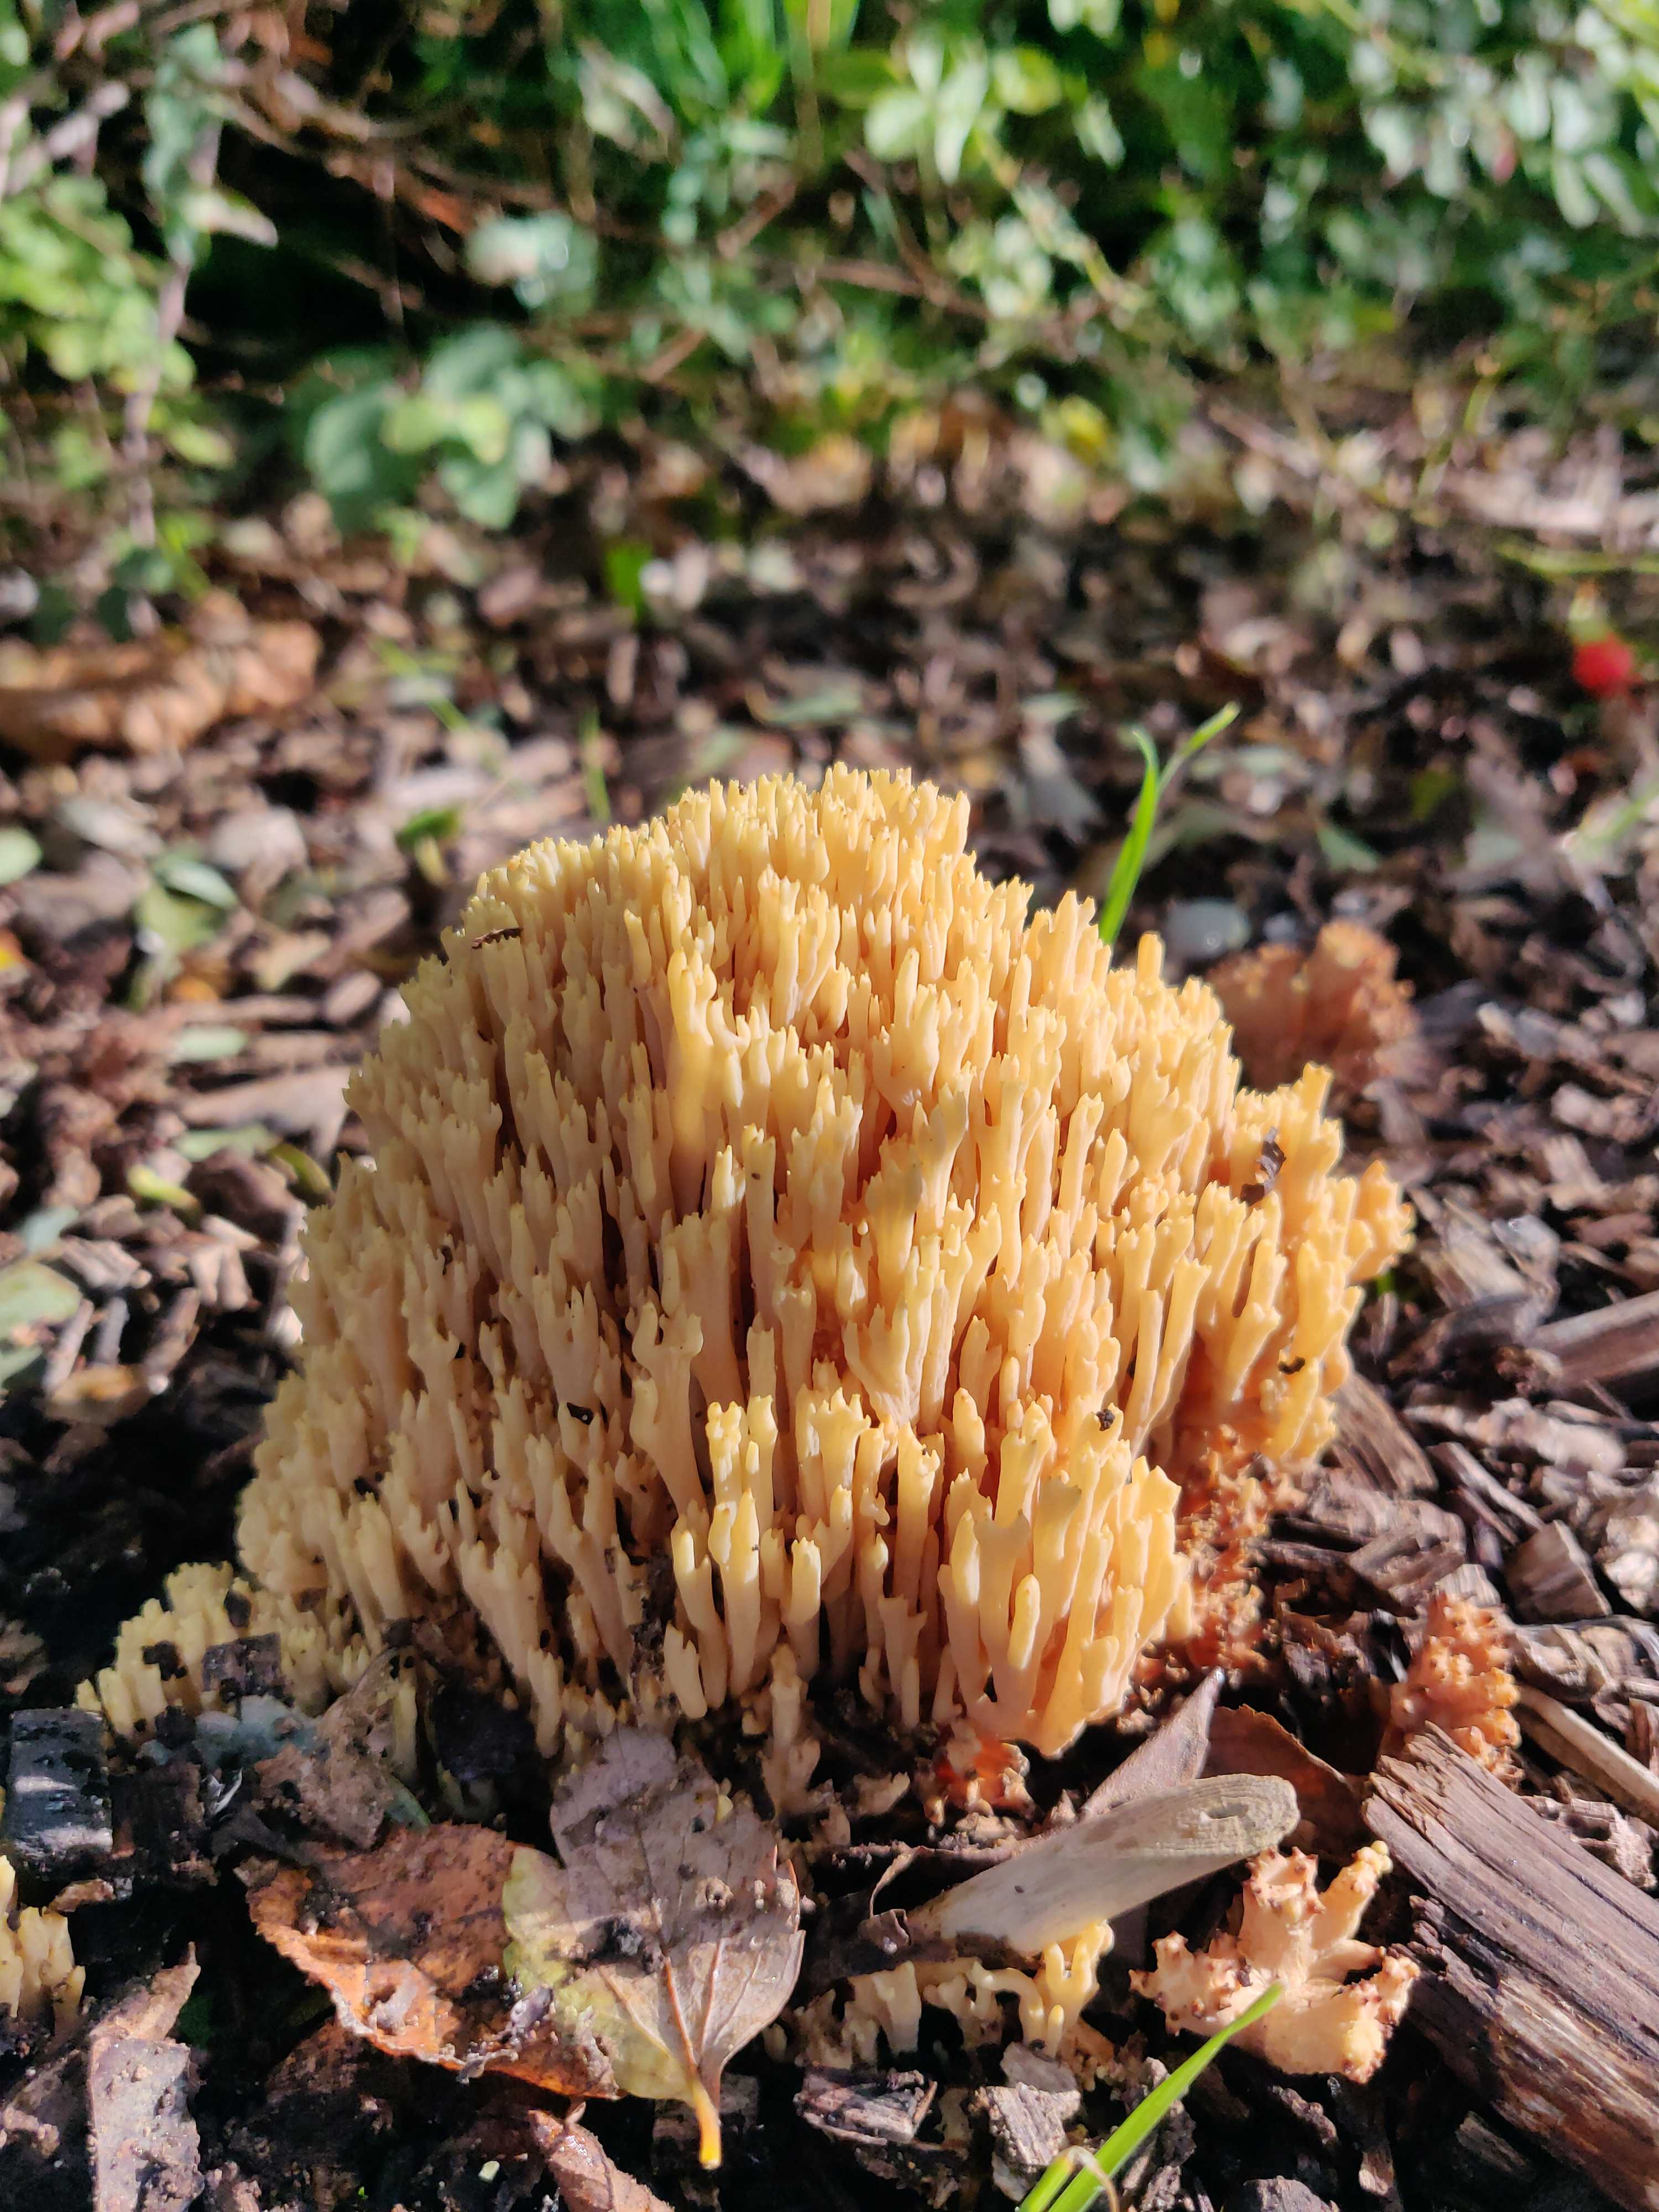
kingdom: Fungi
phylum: Basidiomycota
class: Agaricomycetes
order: Gomphales
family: Gomphaceae
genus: Ramaria
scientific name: Ramaria stricta
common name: rank koralsvamp
